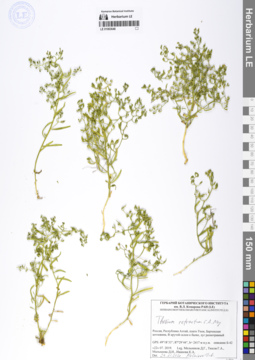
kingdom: Plantae
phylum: Tracheophyta
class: Magnoliopsida
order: Santalales
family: Thesiaceae
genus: Thesium
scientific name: Thesium refractum
